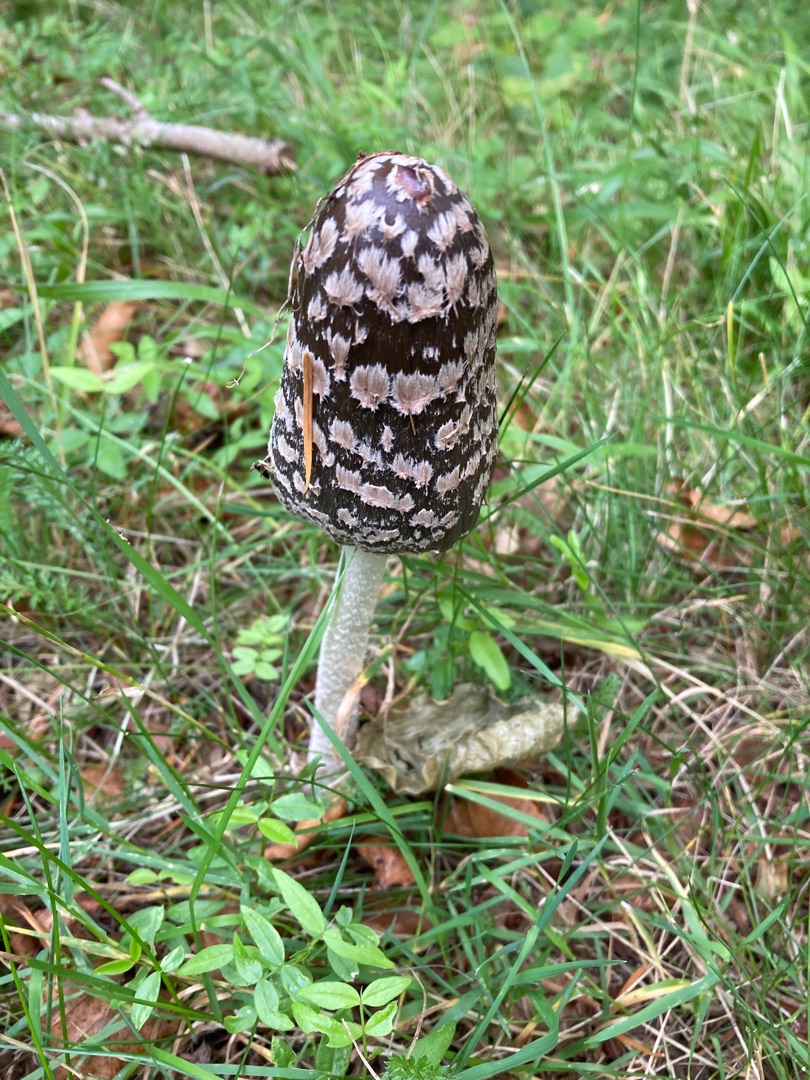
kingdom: Fungi
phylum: Basidiomycota
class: Agaricomycetes
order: Agaricales
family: Psathyrellaceae
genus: Coprinopsis
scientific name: Coprinopsis picacea
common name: Skade-blækhat
